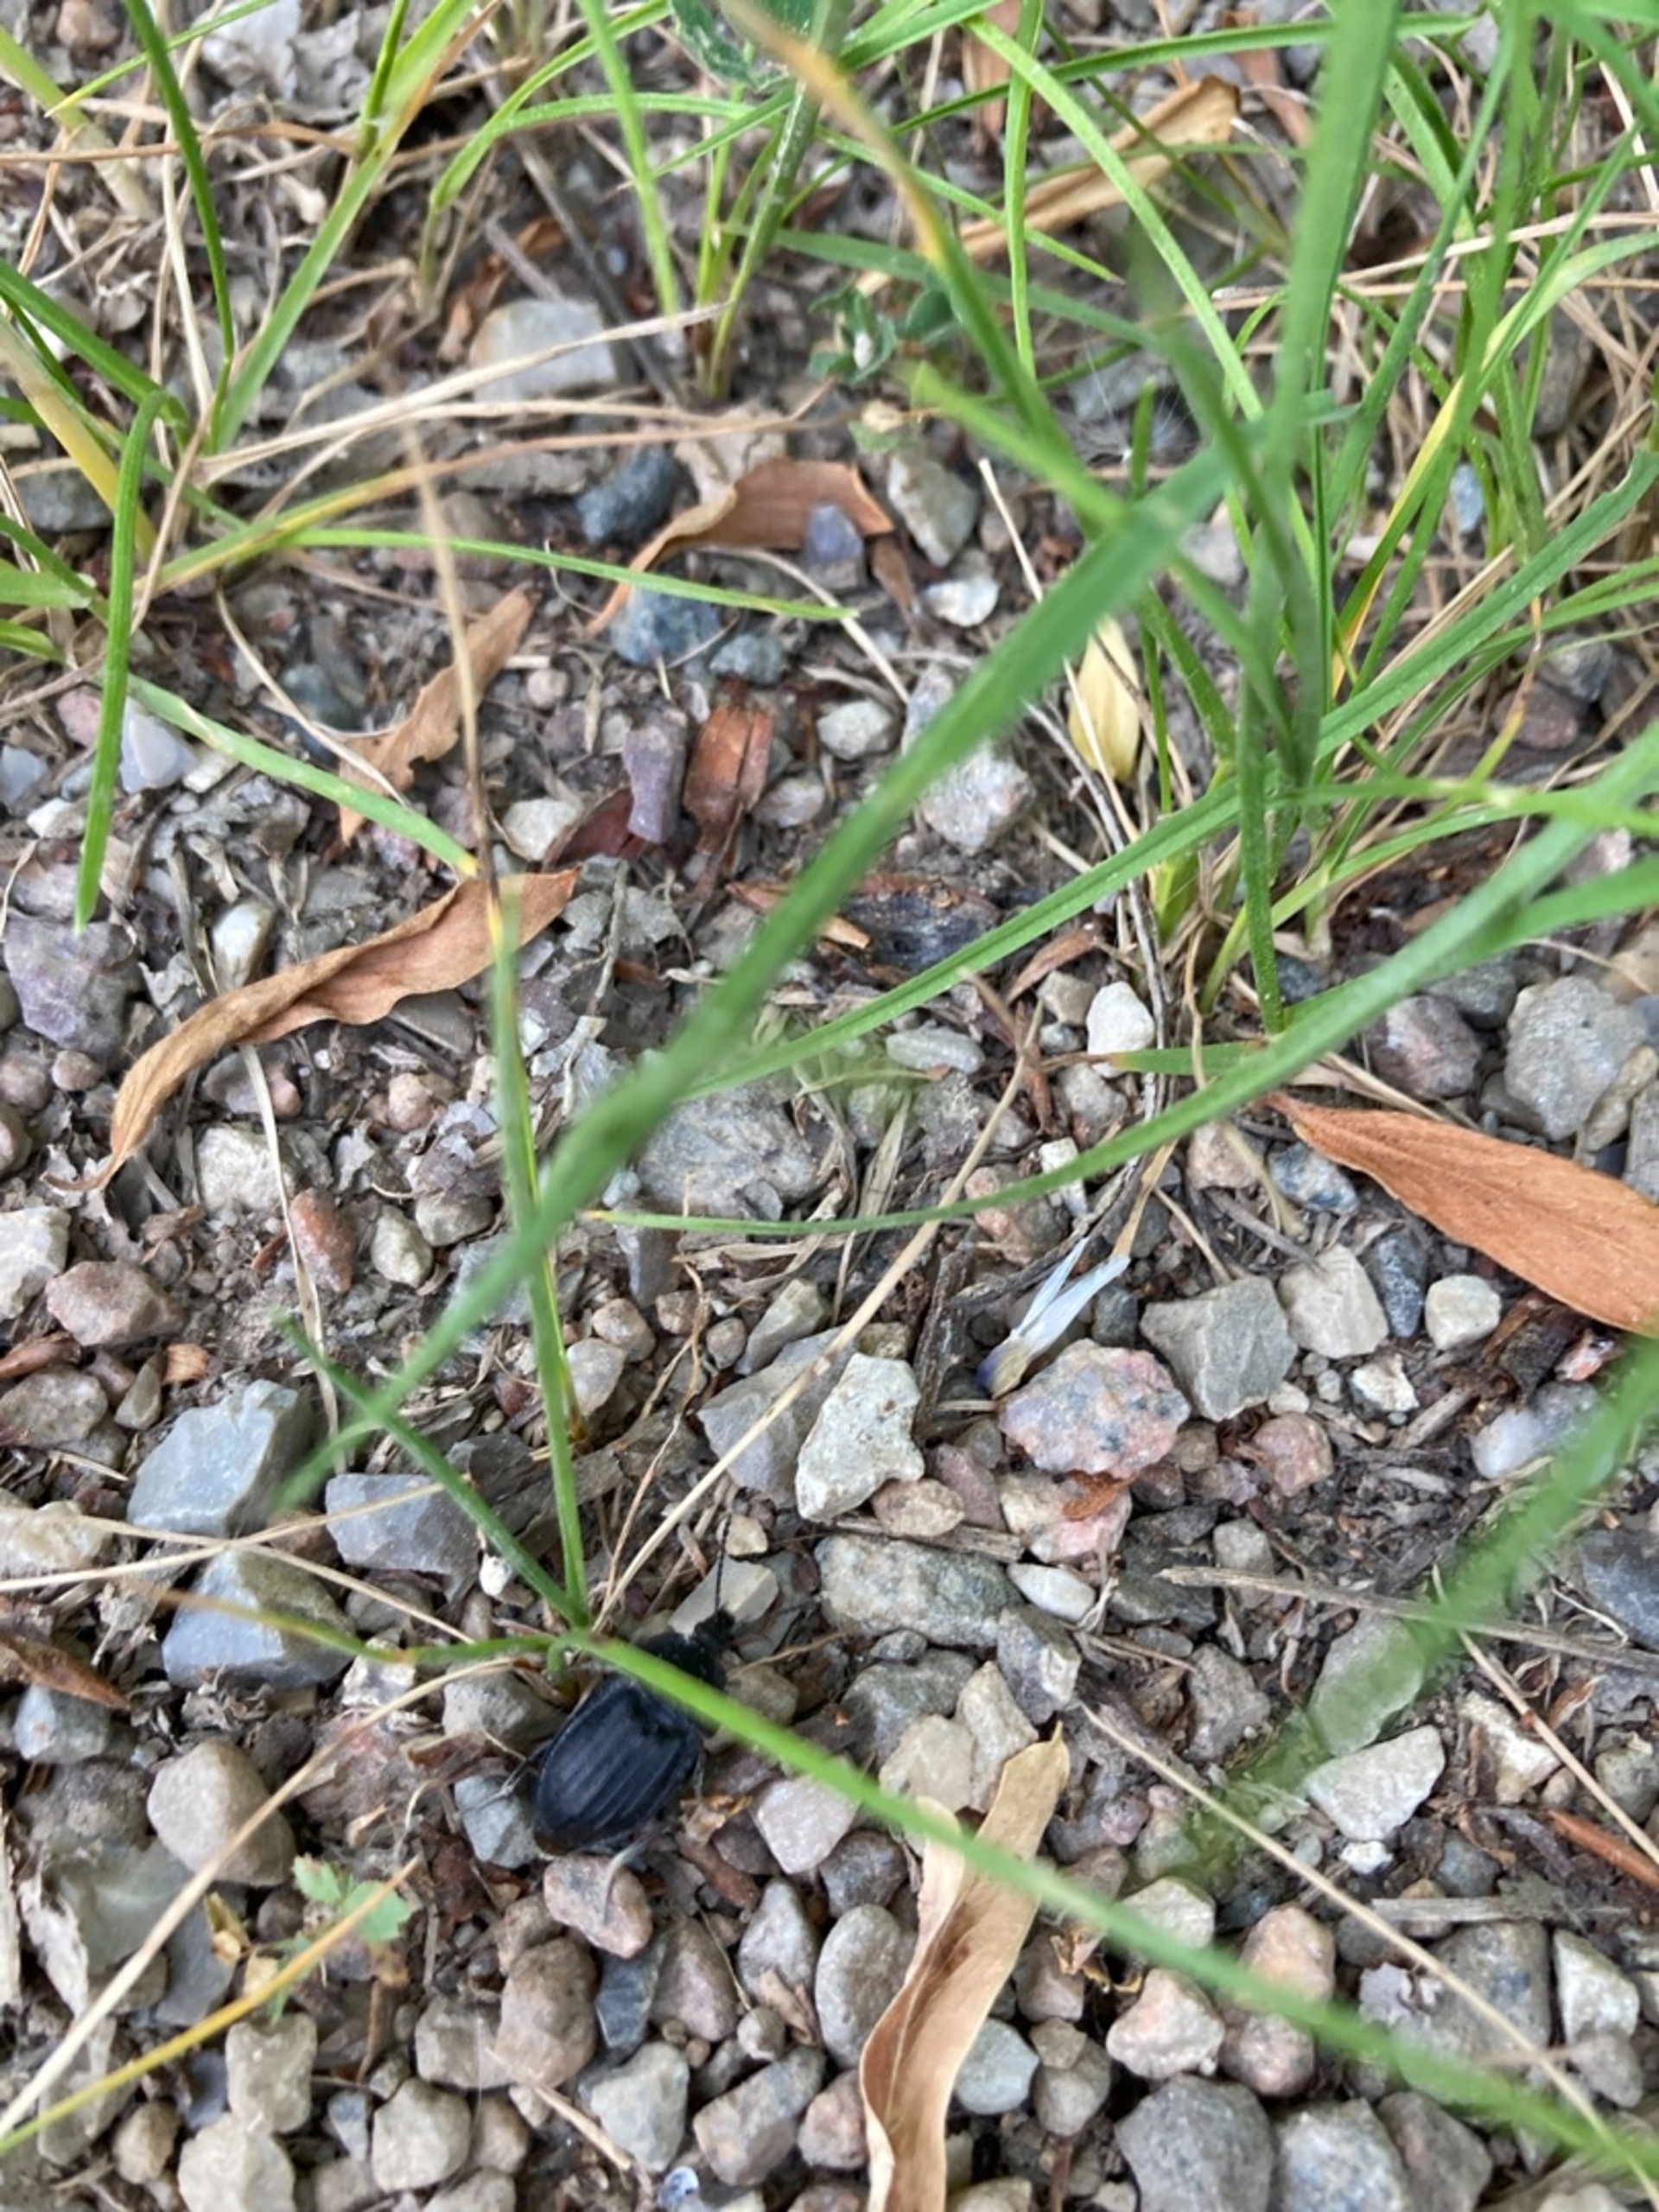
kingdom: Animalia
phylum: Arthropoda
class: Insecta
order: Coleoptera
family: Staphylinidae
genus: Silpha
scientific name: Silpha atrata
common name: Snegleådselbille
